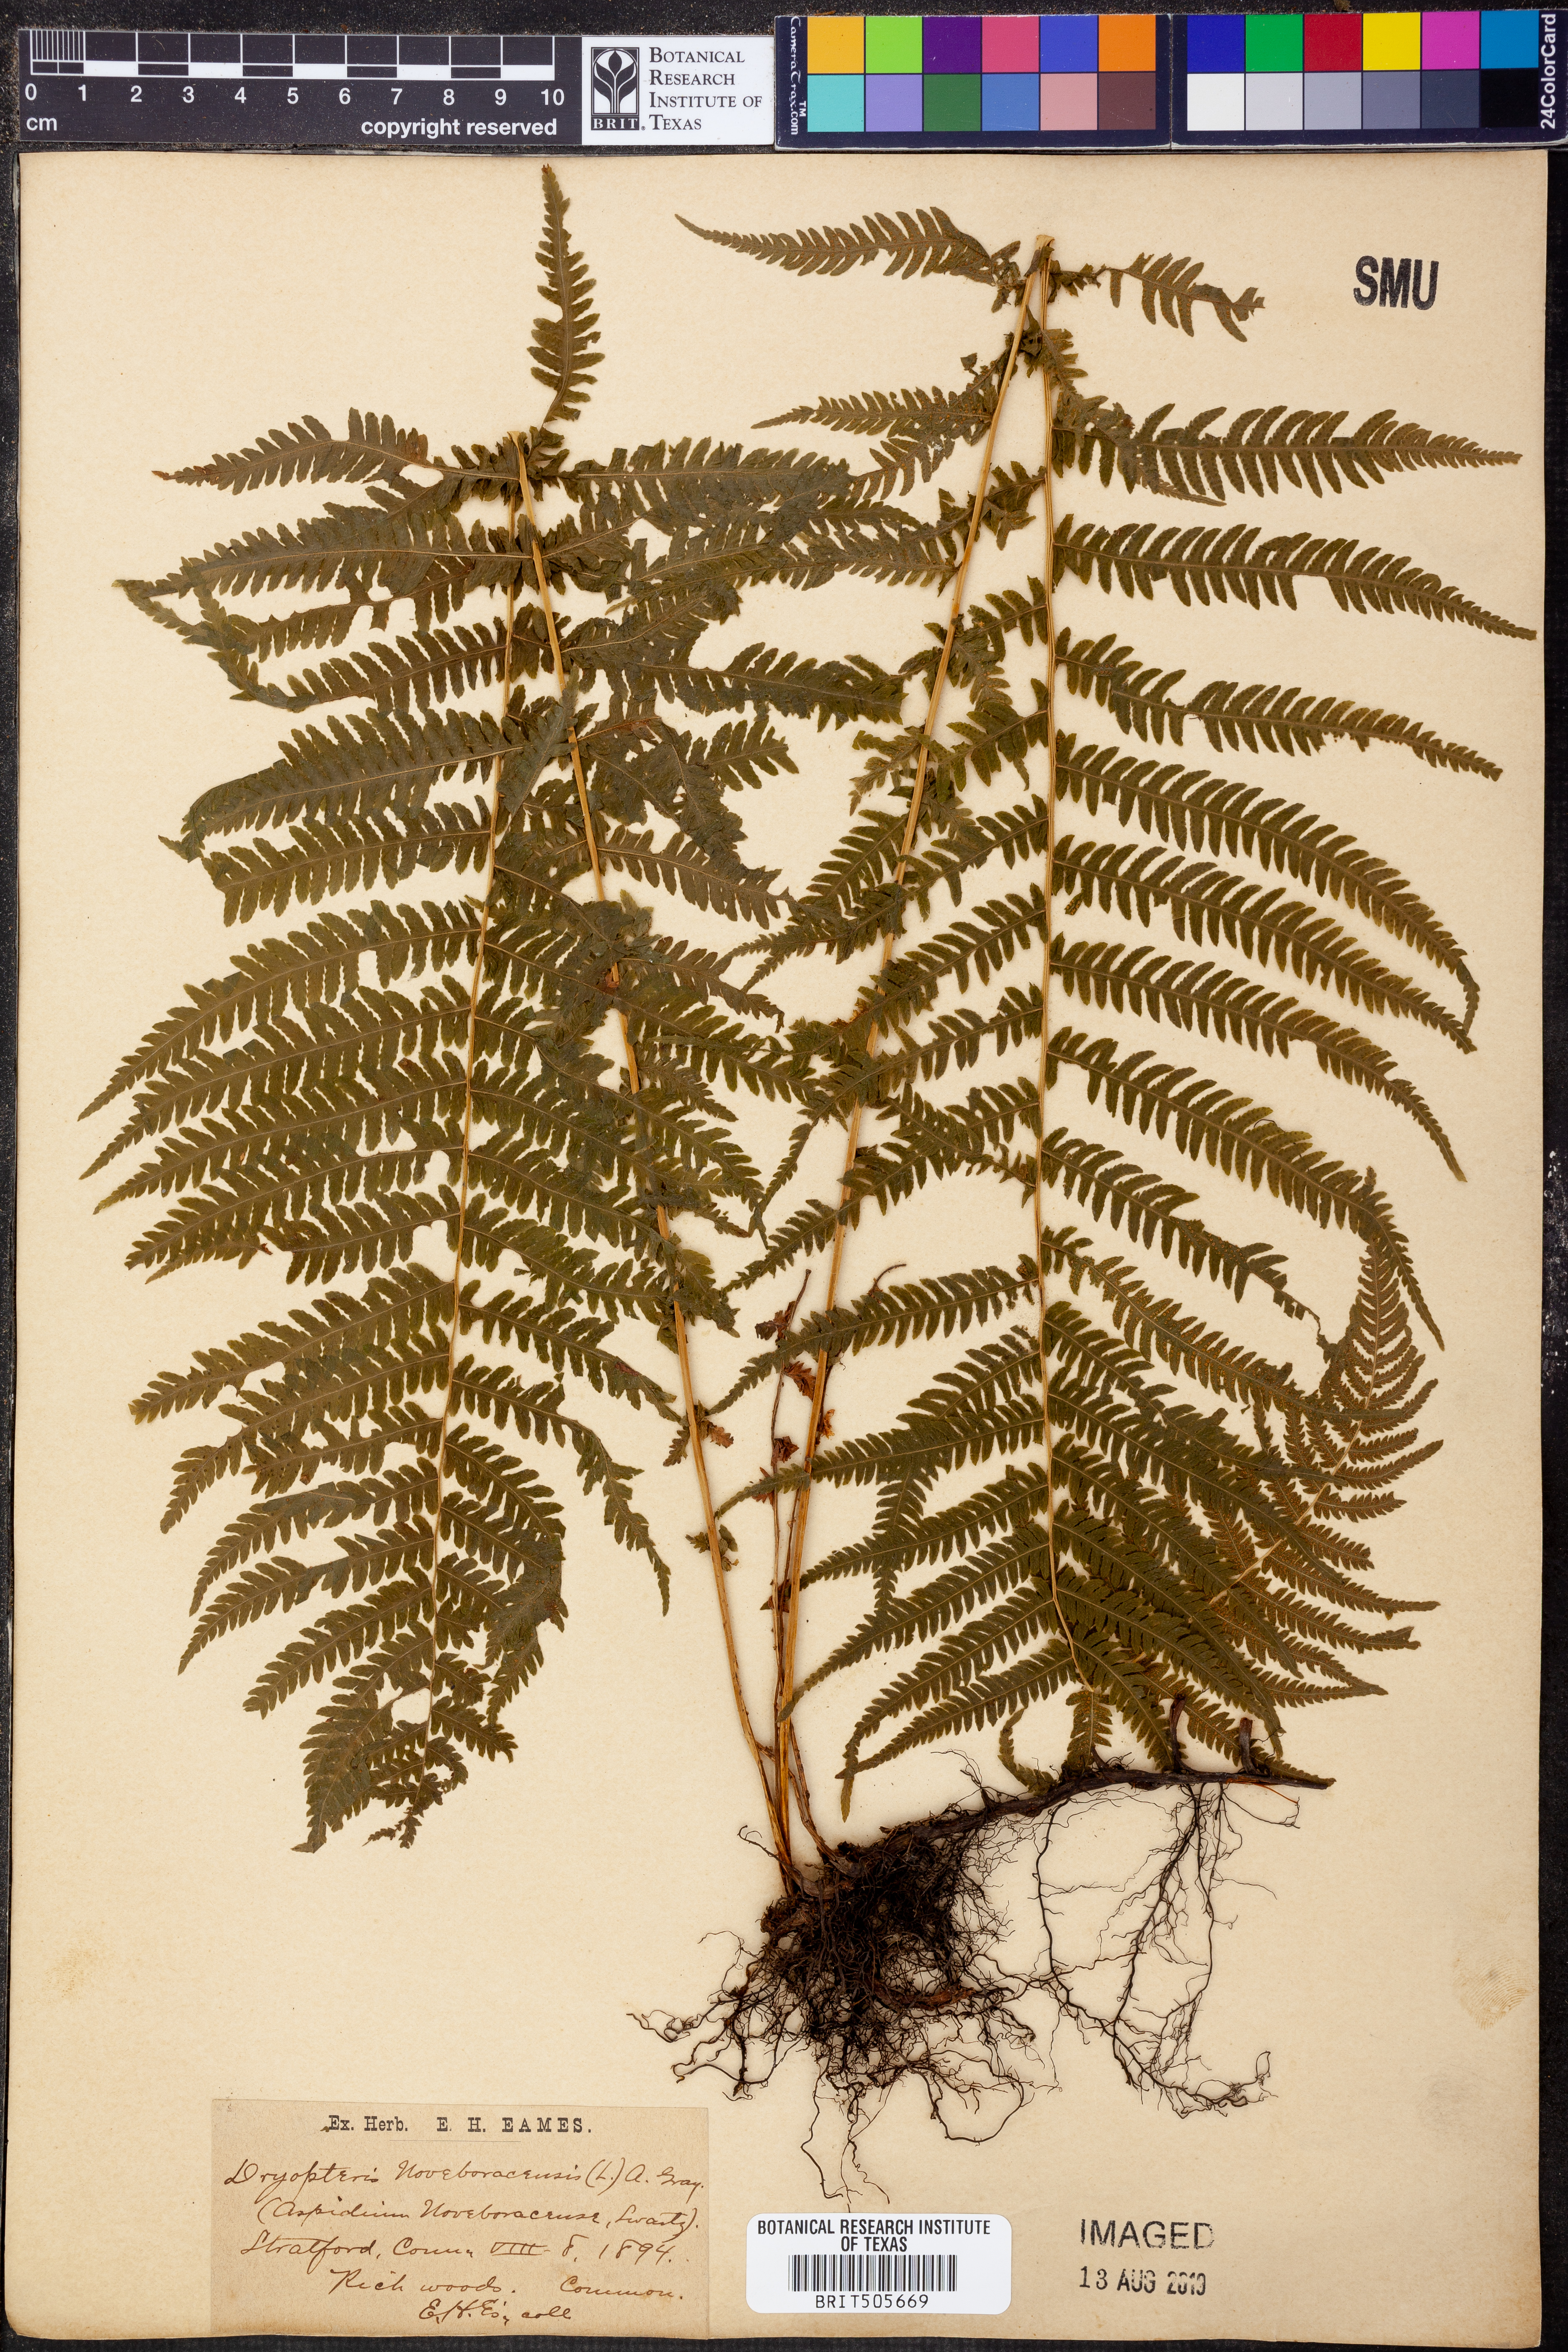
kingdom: Plantae
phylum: Tracheophyta
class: Polypodiopsida
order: Polypodiales
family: Thelypteridaceae
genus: Amauropelta
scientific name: Amauropelta noveboracensis
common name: New york fern
